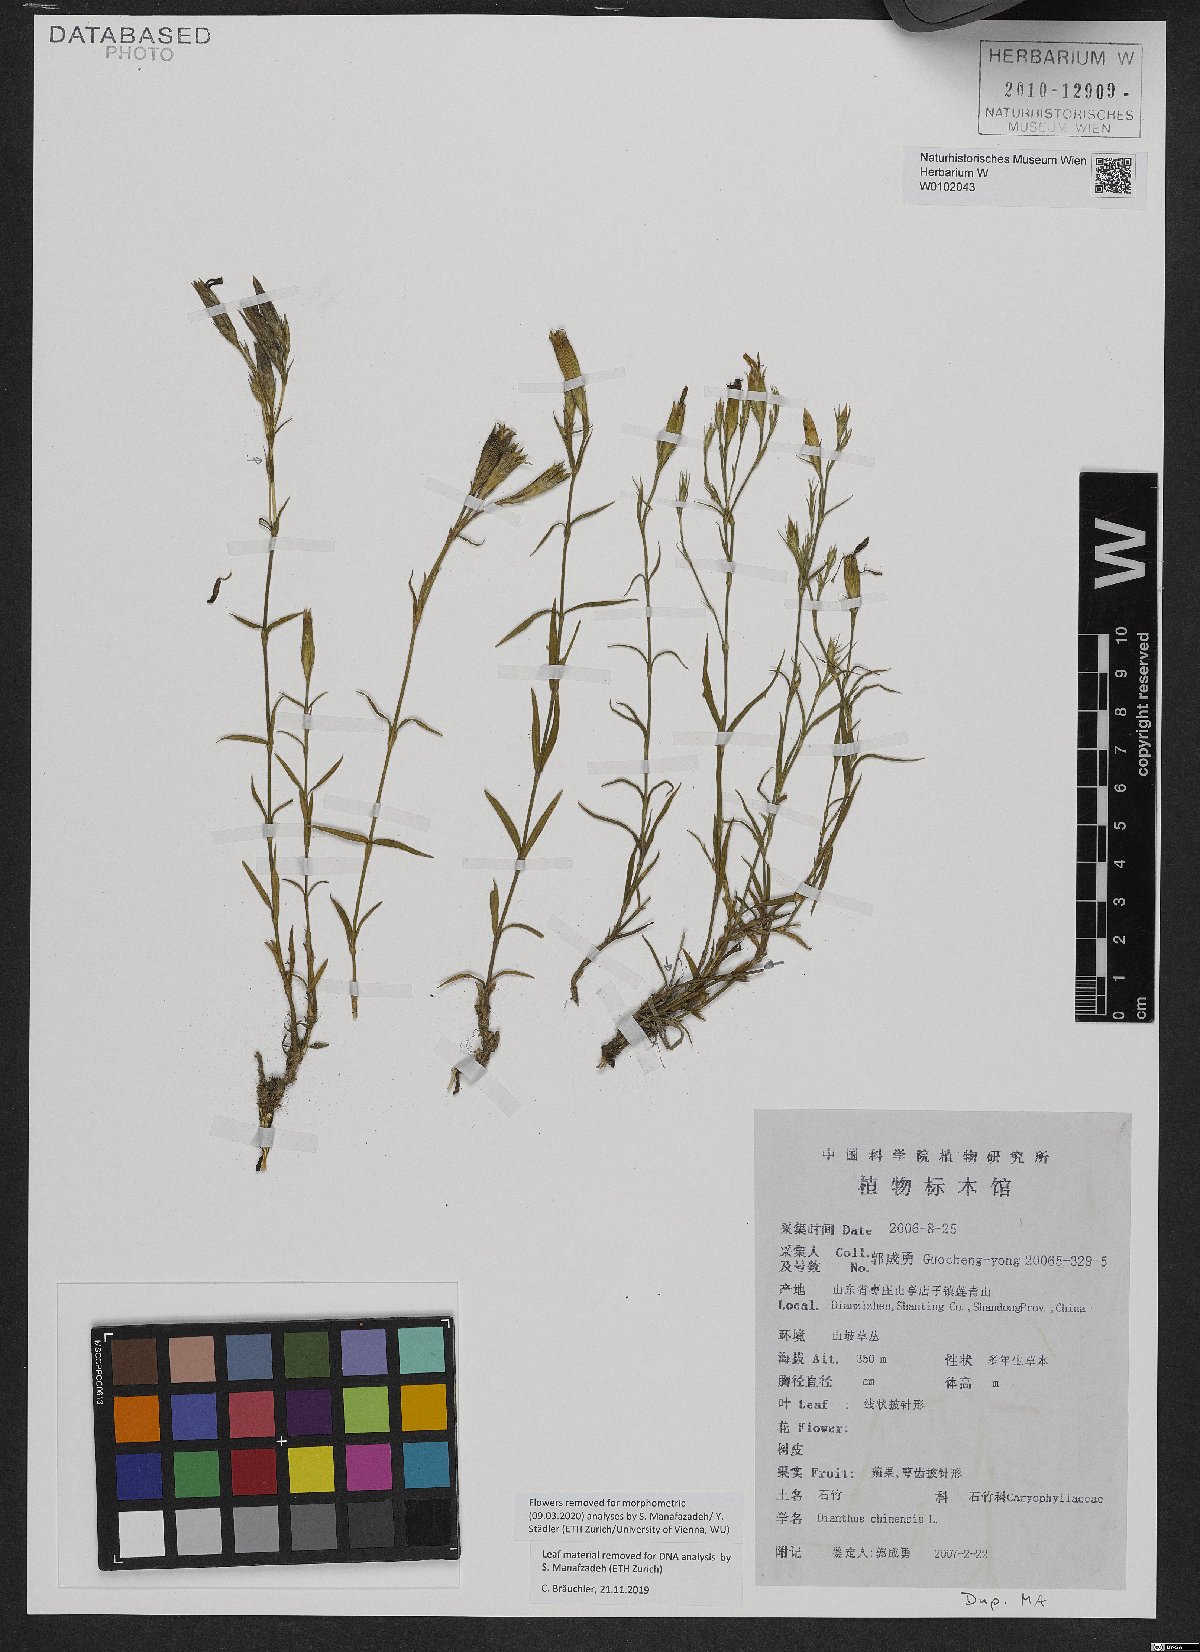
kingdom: Plantae
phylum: Tracheophyta
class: Magnoliopsida
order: Caryophyllales
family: Caryophyllaceae
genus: Dianthus
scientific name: Dianthus chinensis
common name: Rainbow pink
